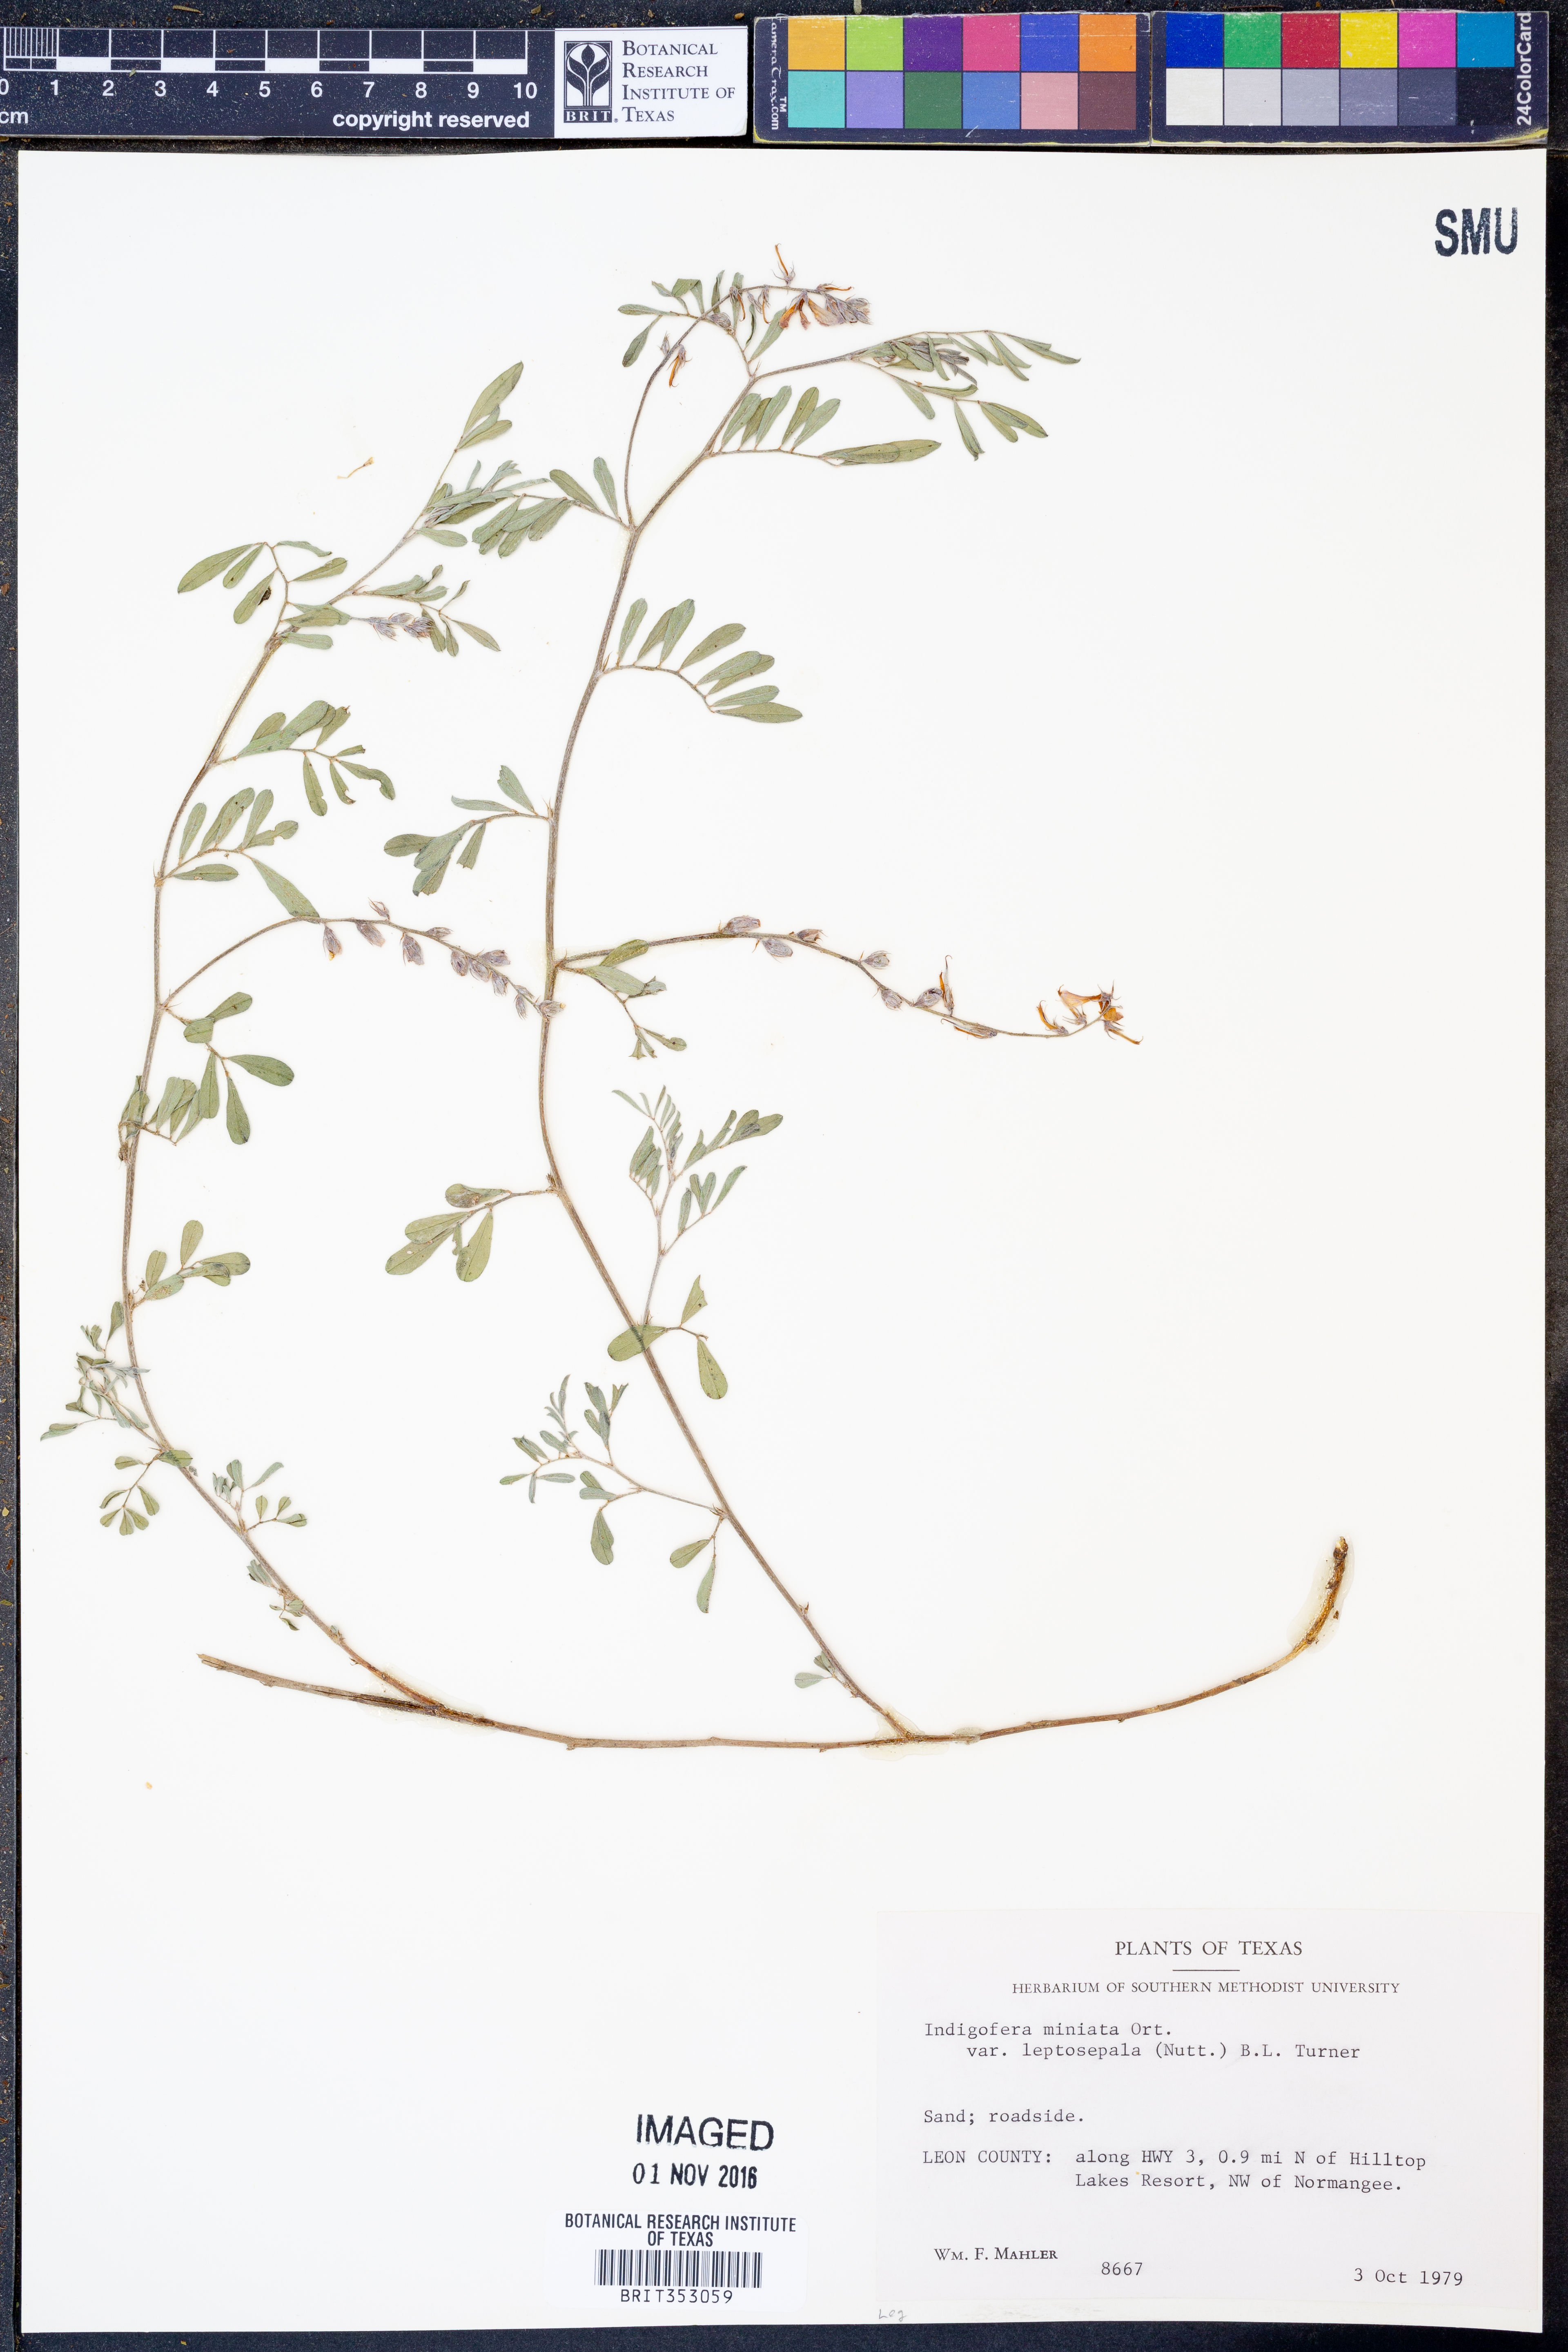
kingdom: Plantae
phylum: Tracheophyta
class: Magnoliopsida
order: Fabales
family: Fabaceae
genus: Indigofera
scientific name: Indigofera miniata
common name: Coast indigo
